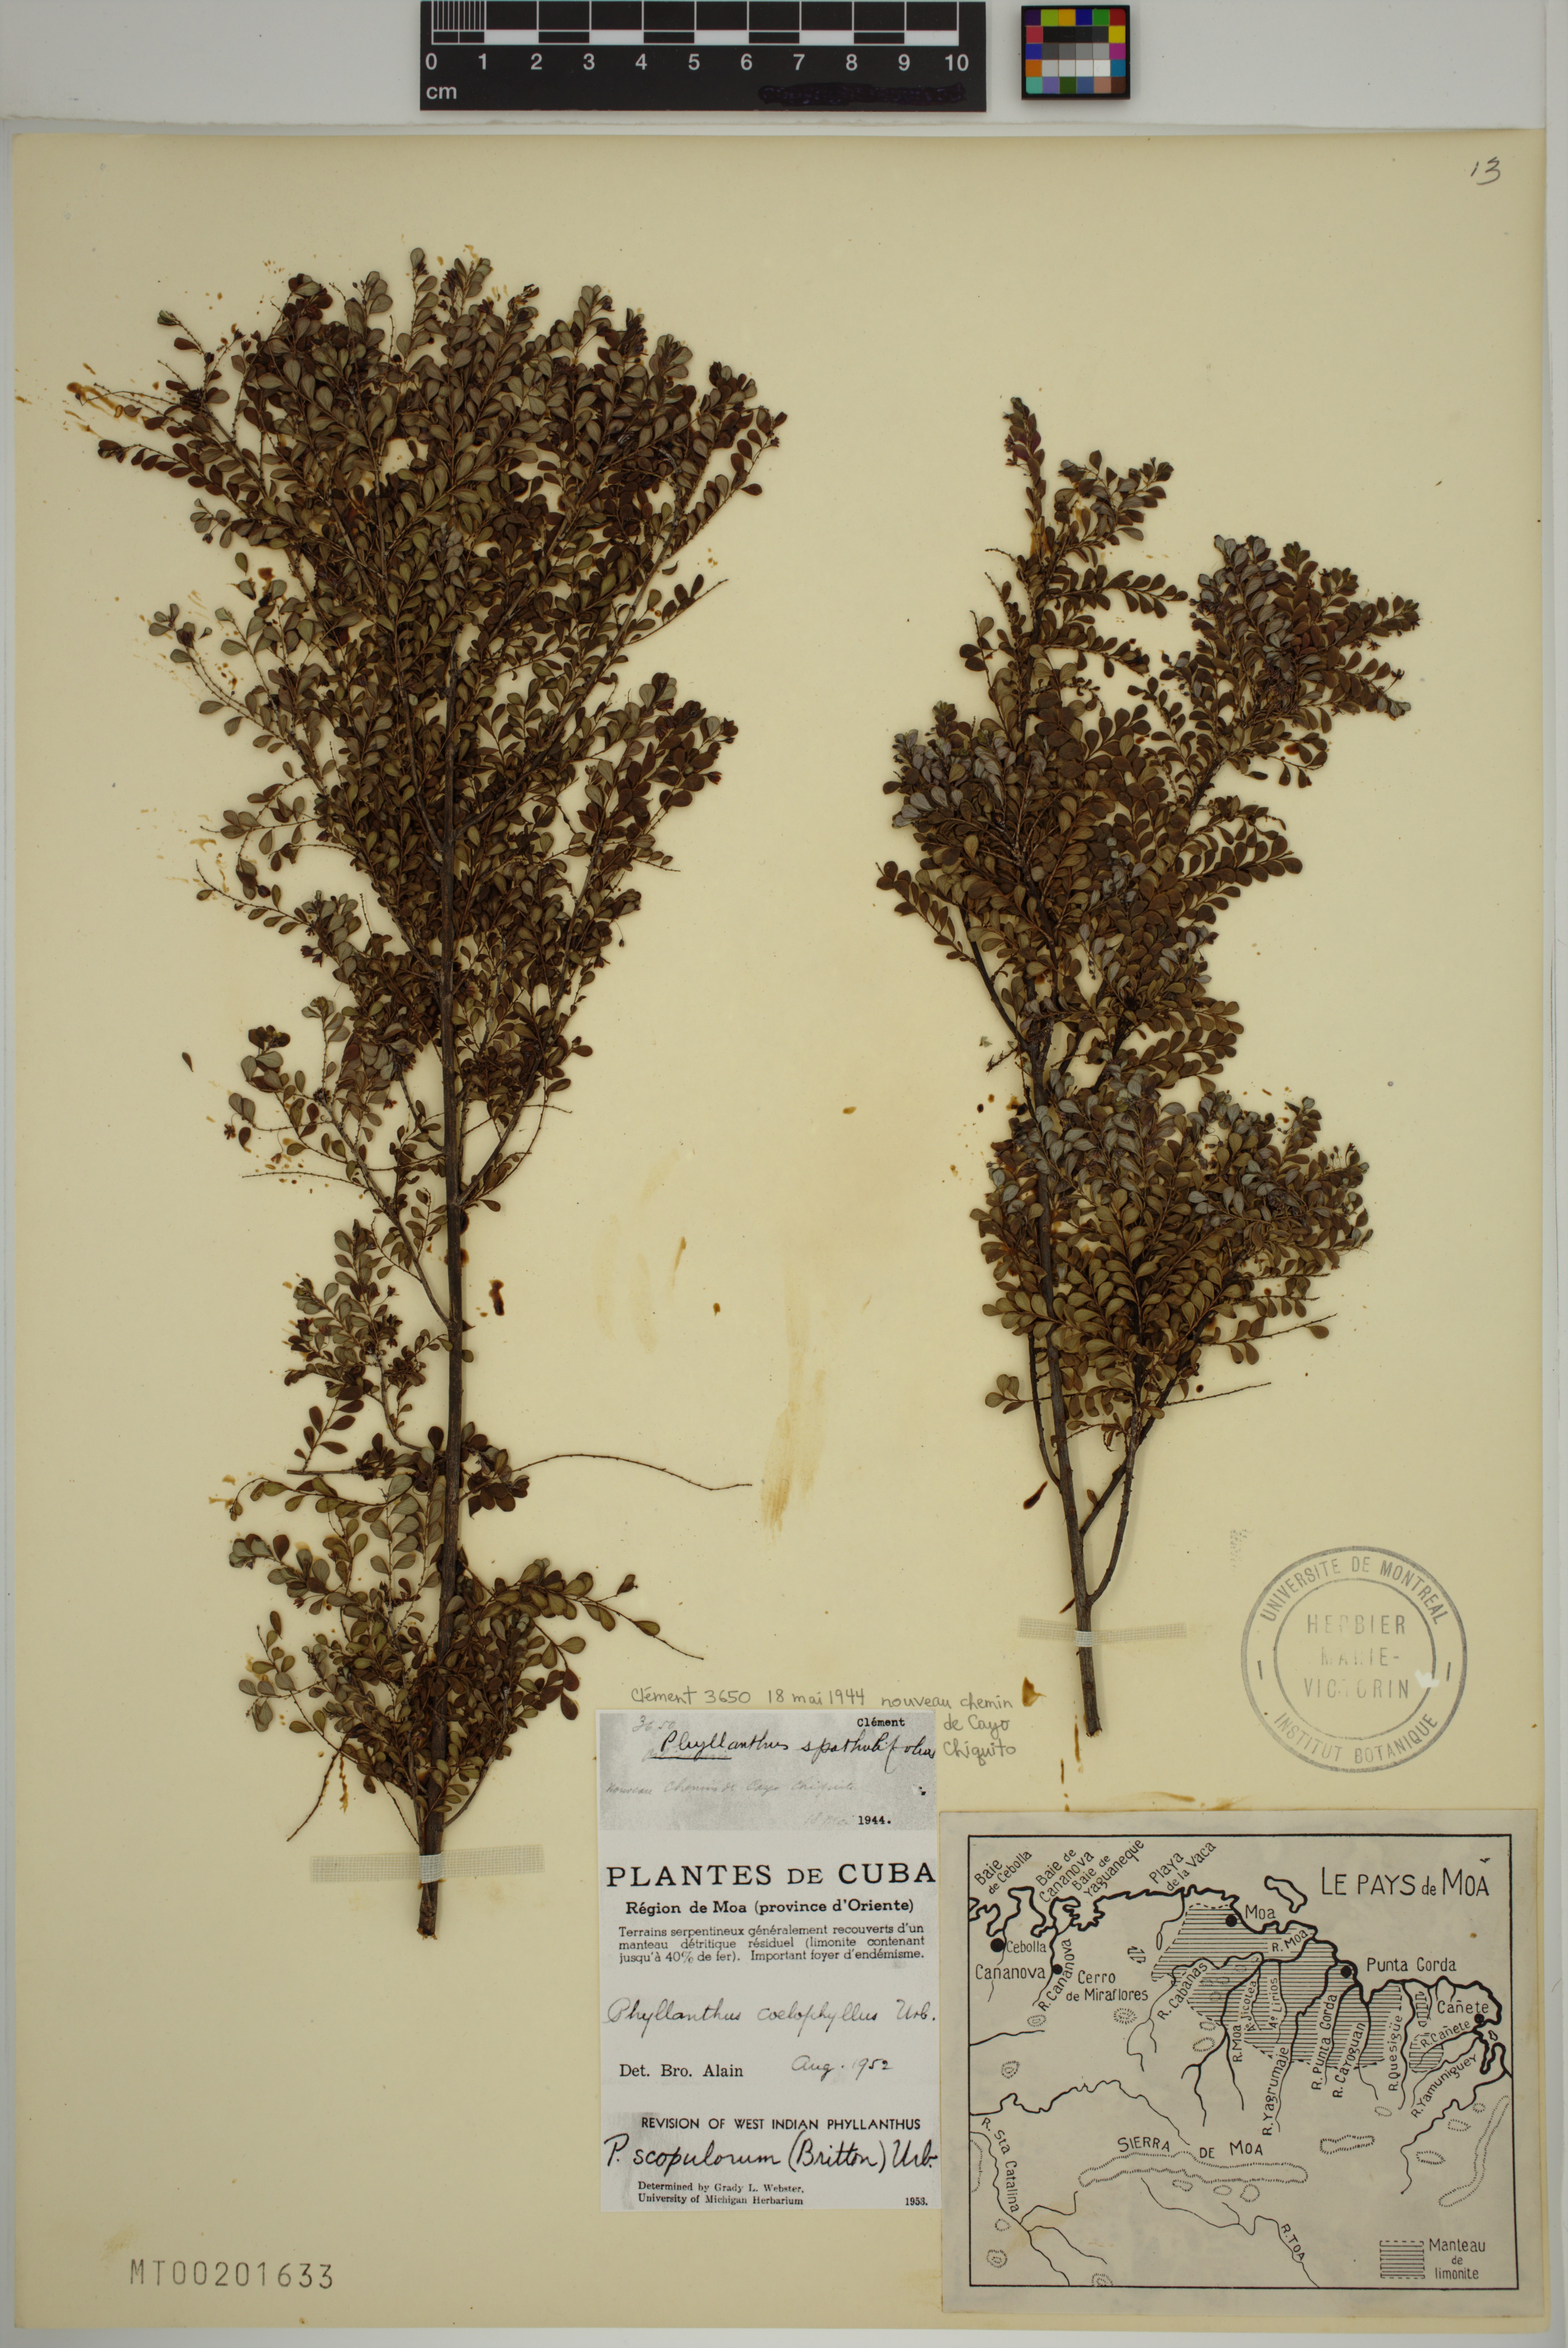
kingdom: Plantae
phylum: Tracheophyta
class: Magnoliopsida
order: Malpighiales
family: Phyllanthaceae
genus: Phyllanthus
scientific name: Phyllanthus chamaecristoides
